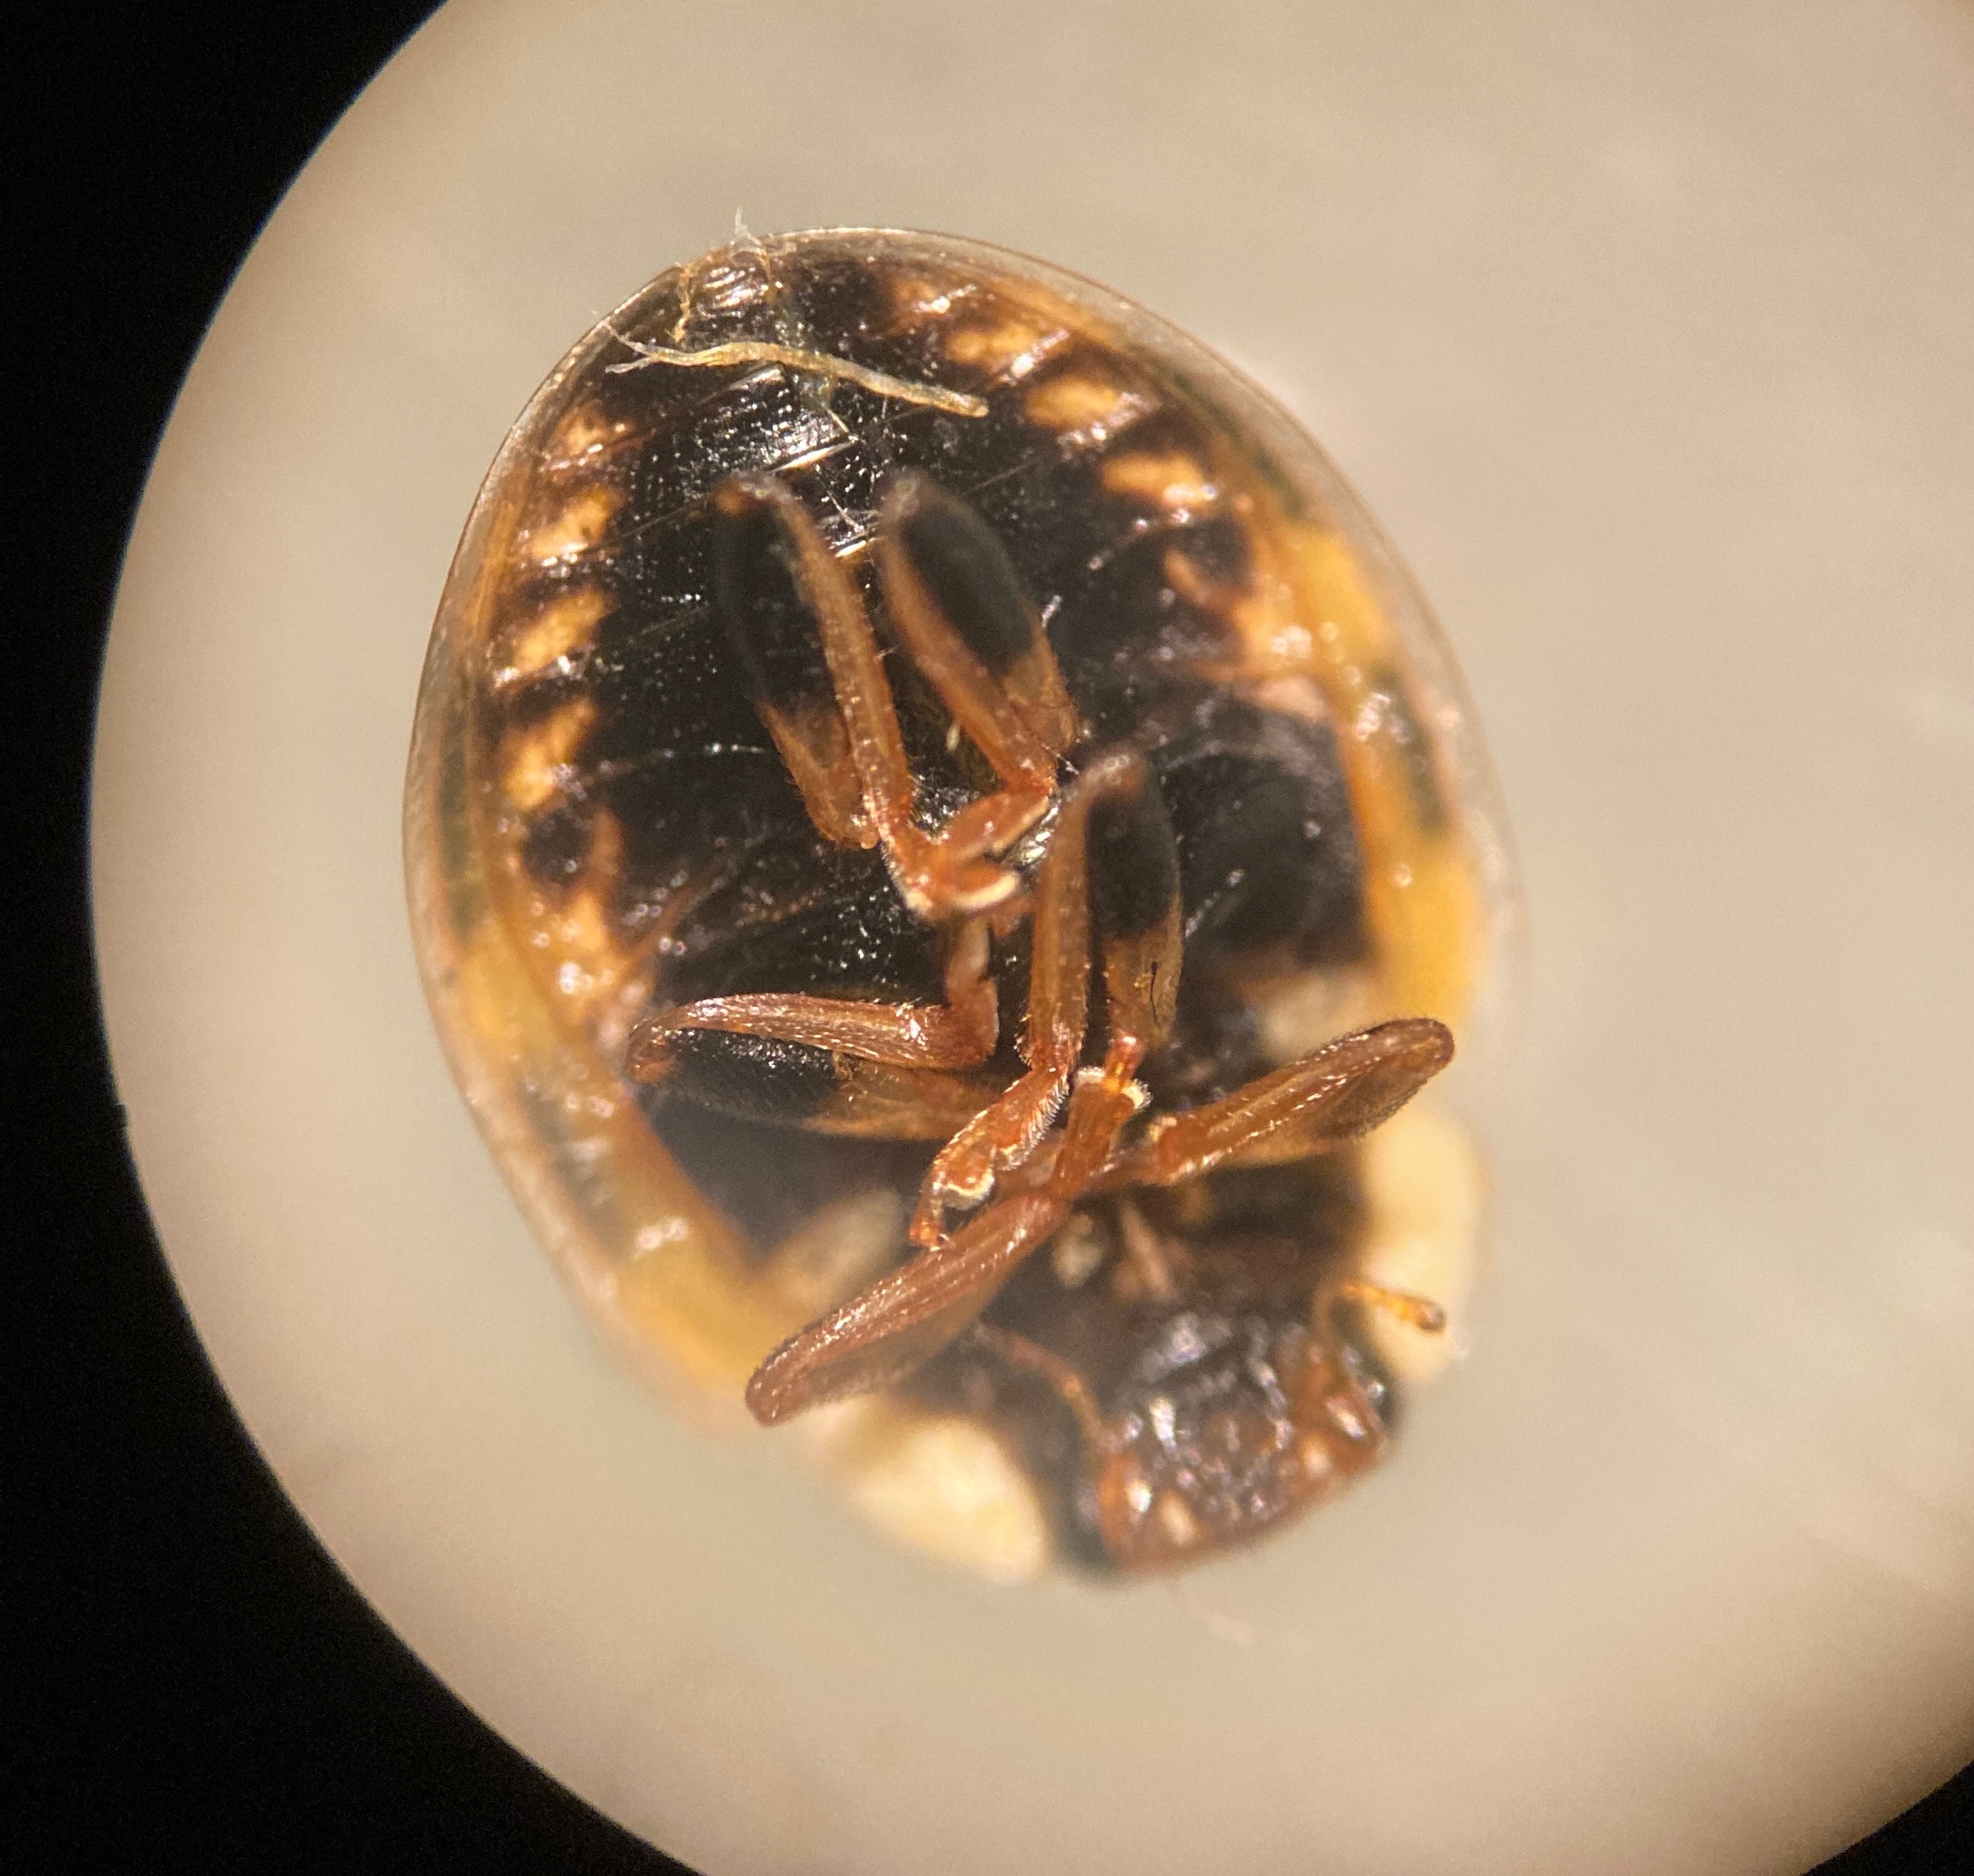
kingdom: Animalia
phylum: Arthropoda
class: Insecta
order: Coleoptera
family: Coccinellidae
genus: Propylaea
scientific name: Propylaea quatuordecimpunctata
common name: Skakbræt
